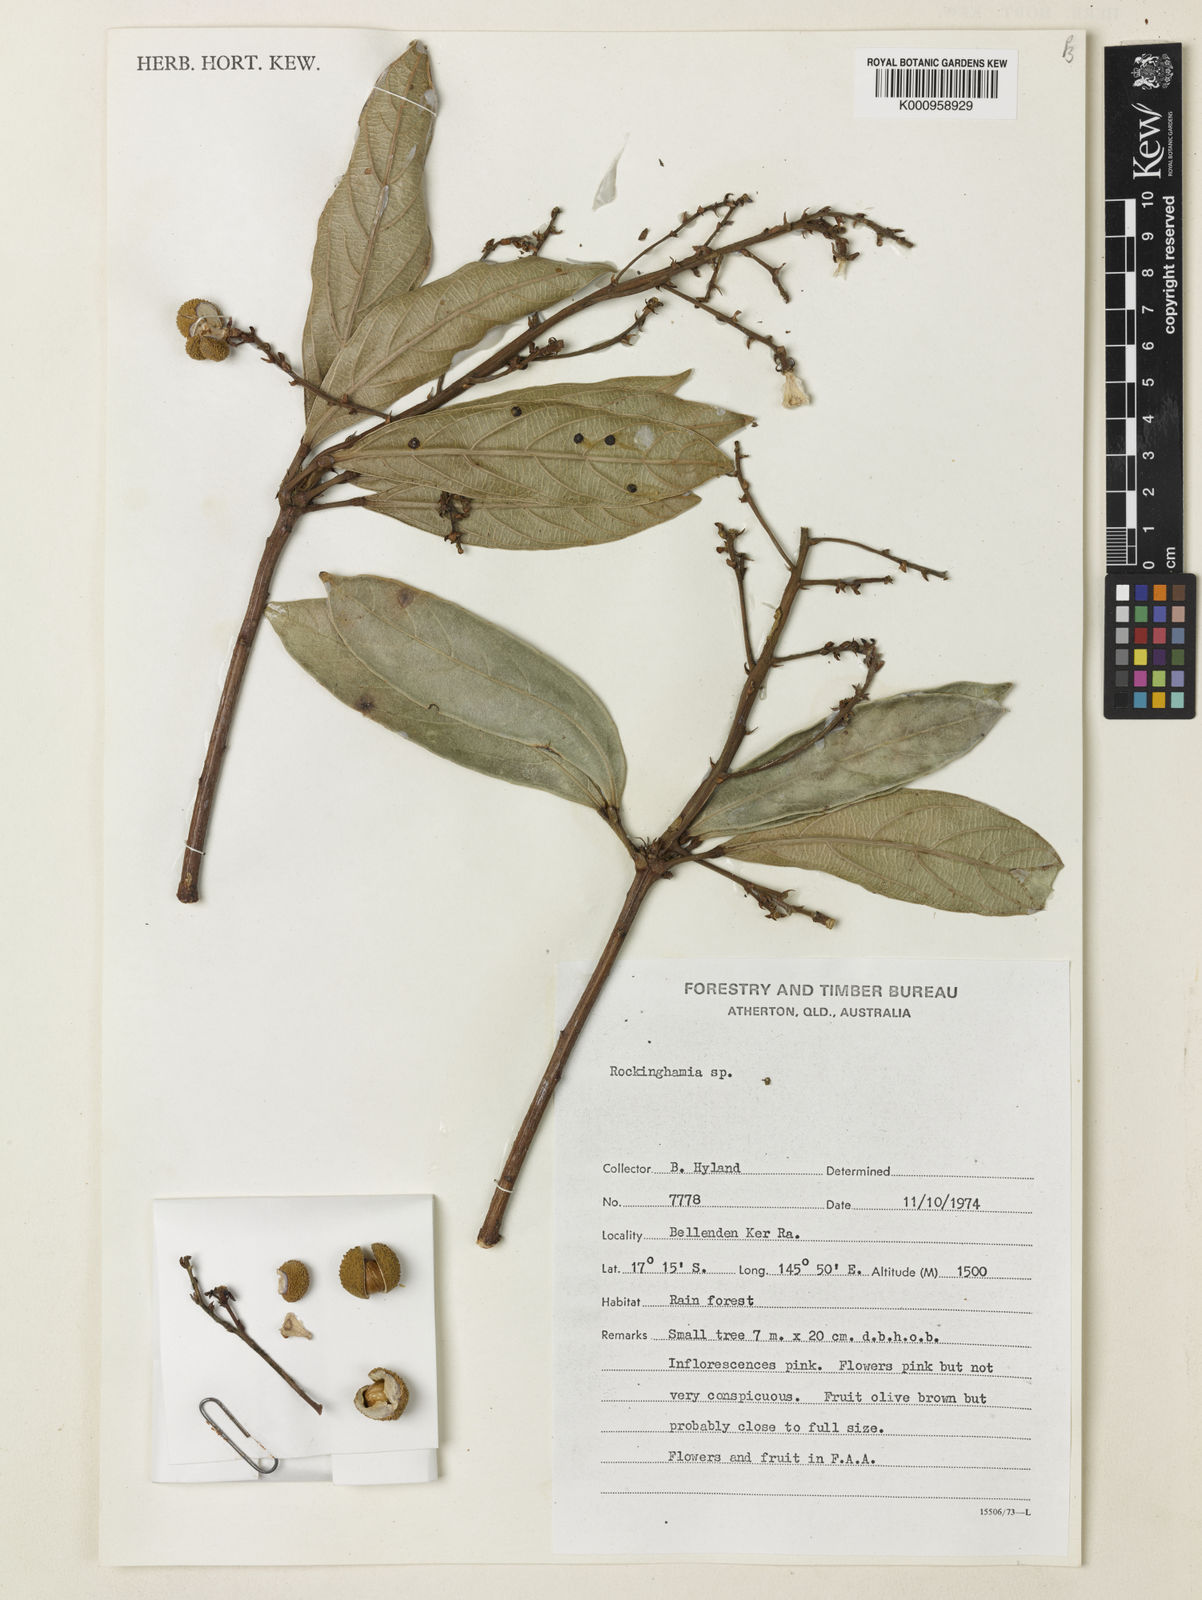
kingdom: Plantae
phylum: Tracheophyta
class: Magnoliopsida
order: Malpighiales
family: Euphorbiaceae
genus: Rockinghamia
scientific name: Rockinghamia brevipes
